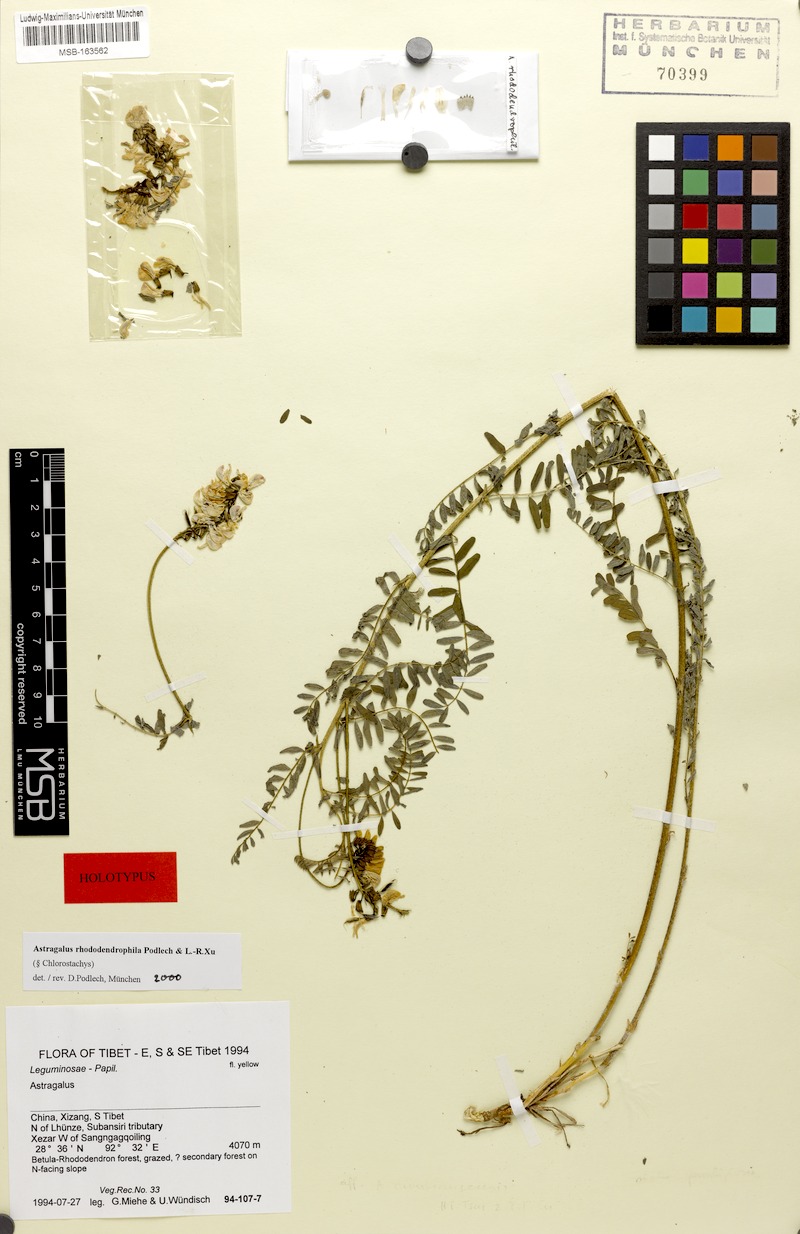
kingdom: Plantae
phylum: Tracheophyta
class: Magnoliopsida
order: Fabales
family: Fabaceae
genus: Astragalus
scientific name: Astragalus rhododendrophilus
